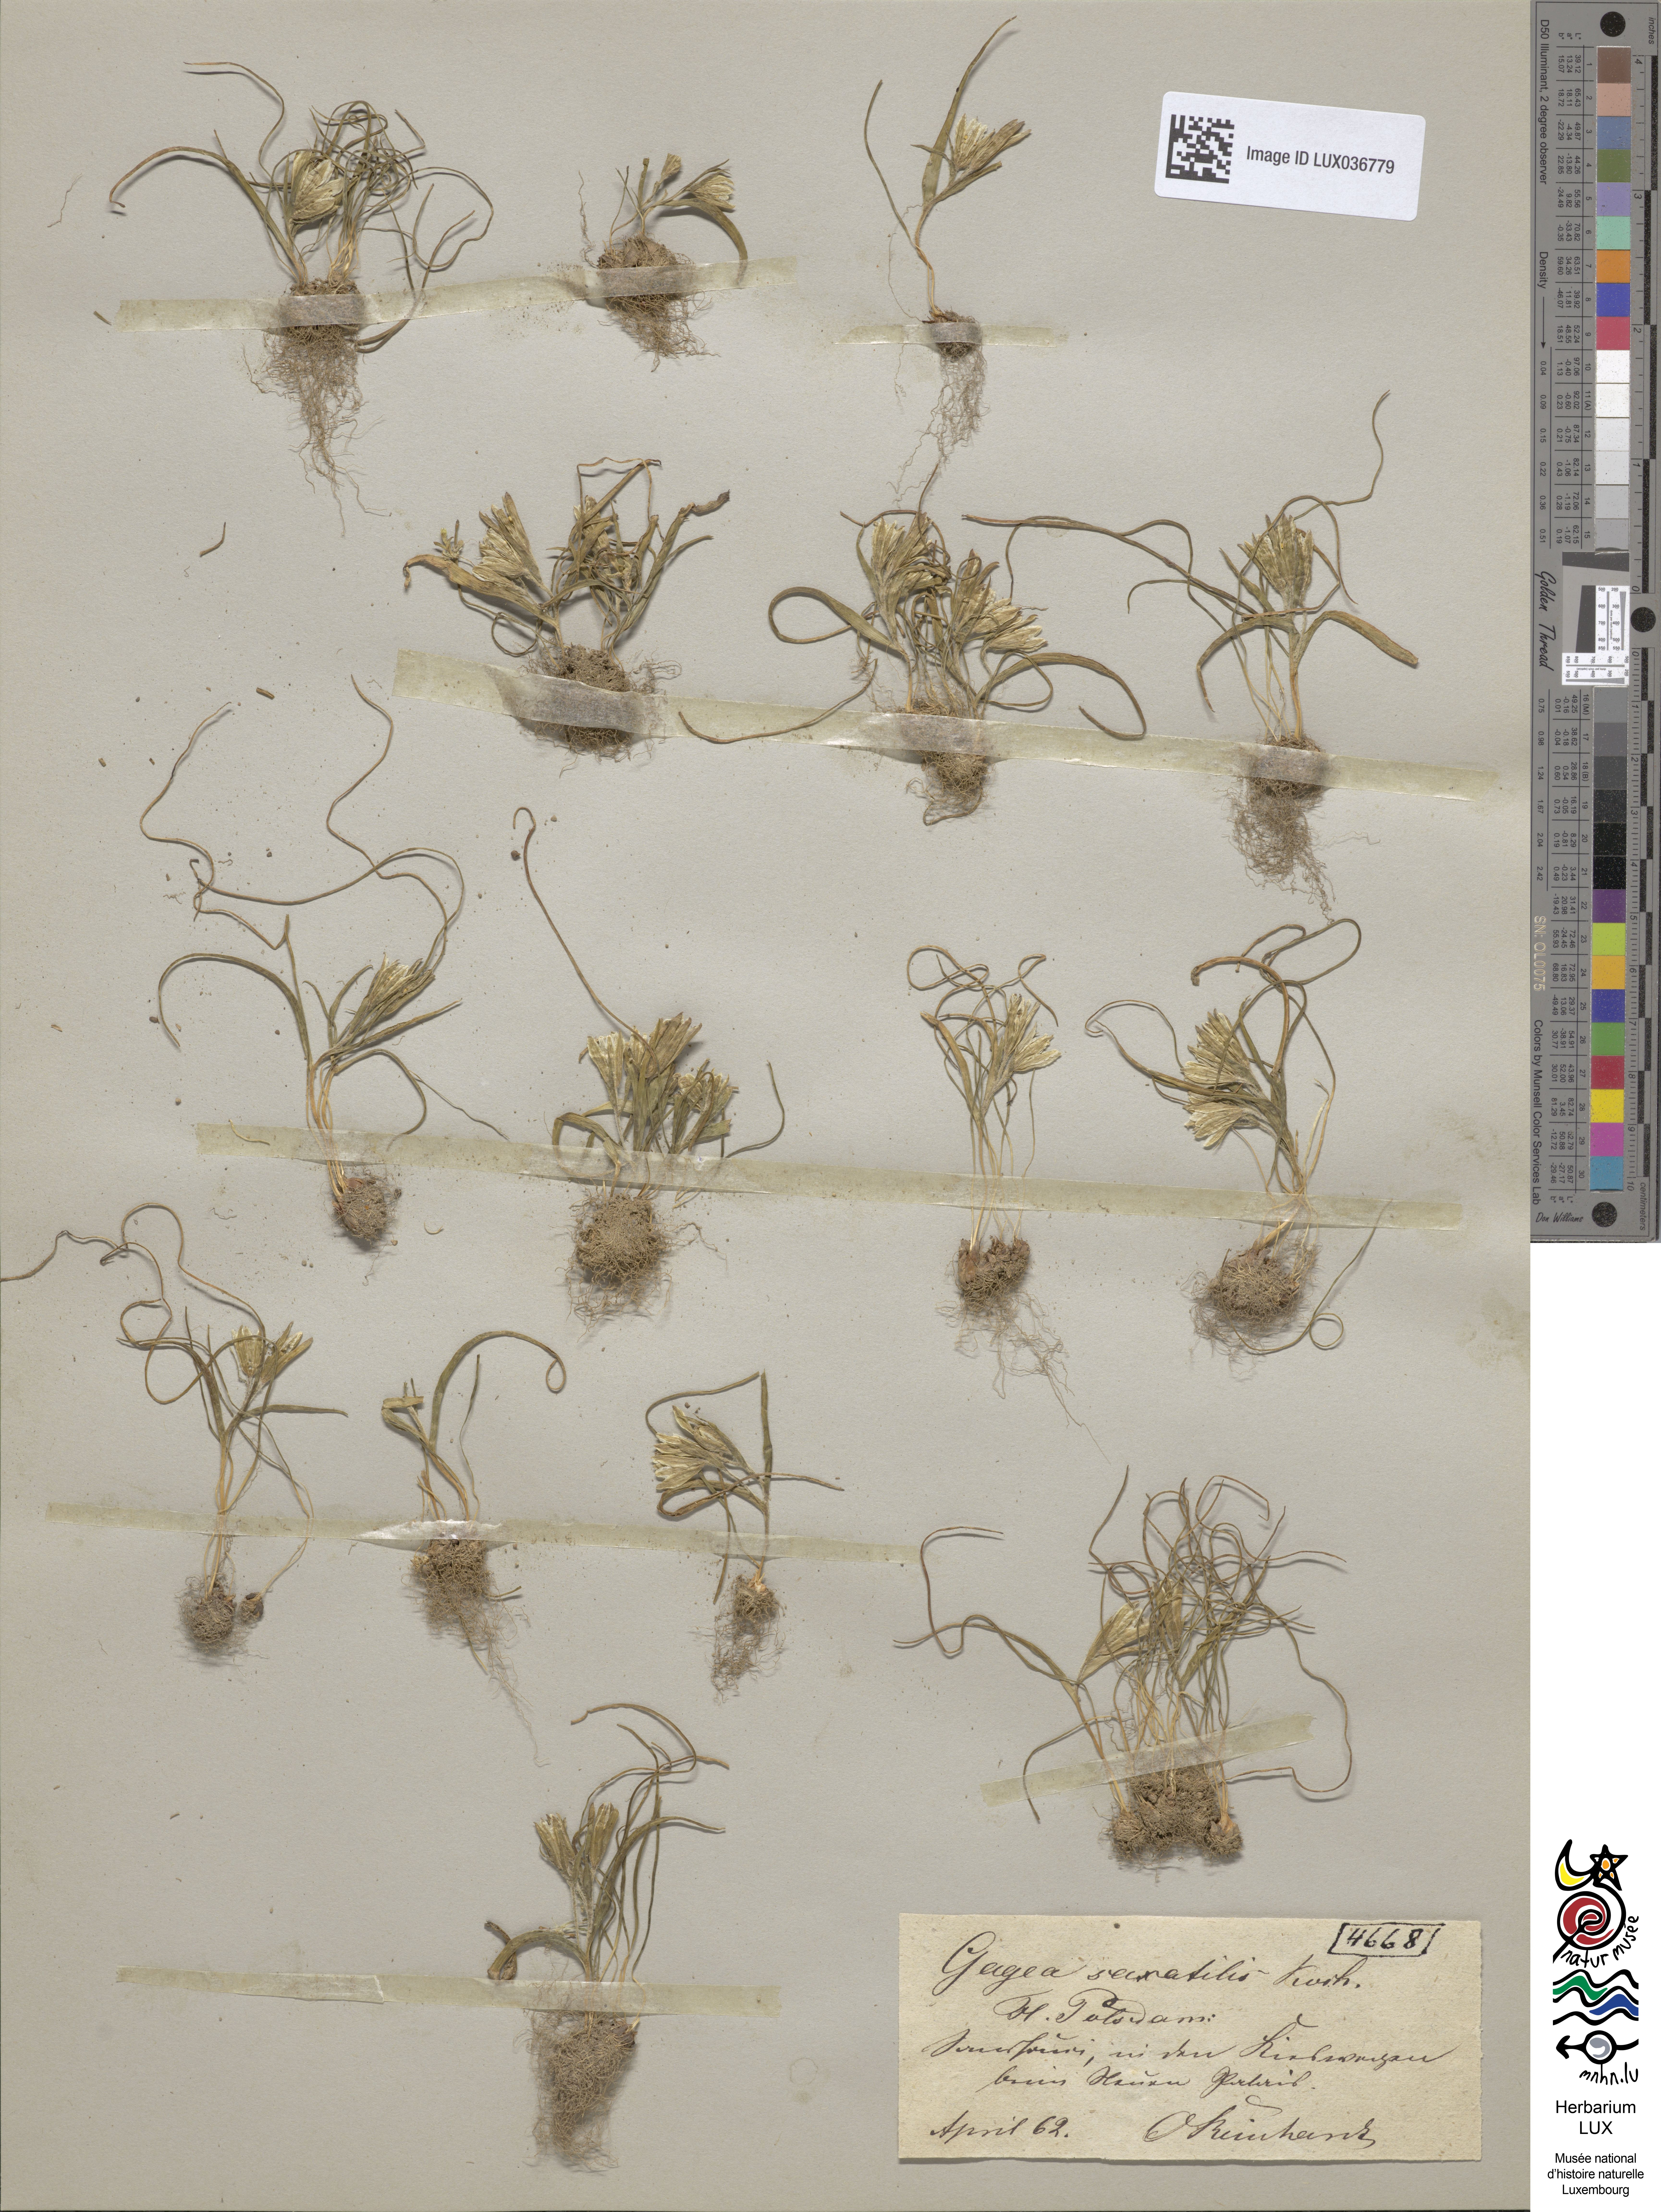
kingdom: Plantae
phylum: Tracheophyta
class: Liliopsida
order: Liliales
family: Liliaceae
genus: Gagea
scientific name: Gagea bohemica
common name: Early star-of-bethlehem
